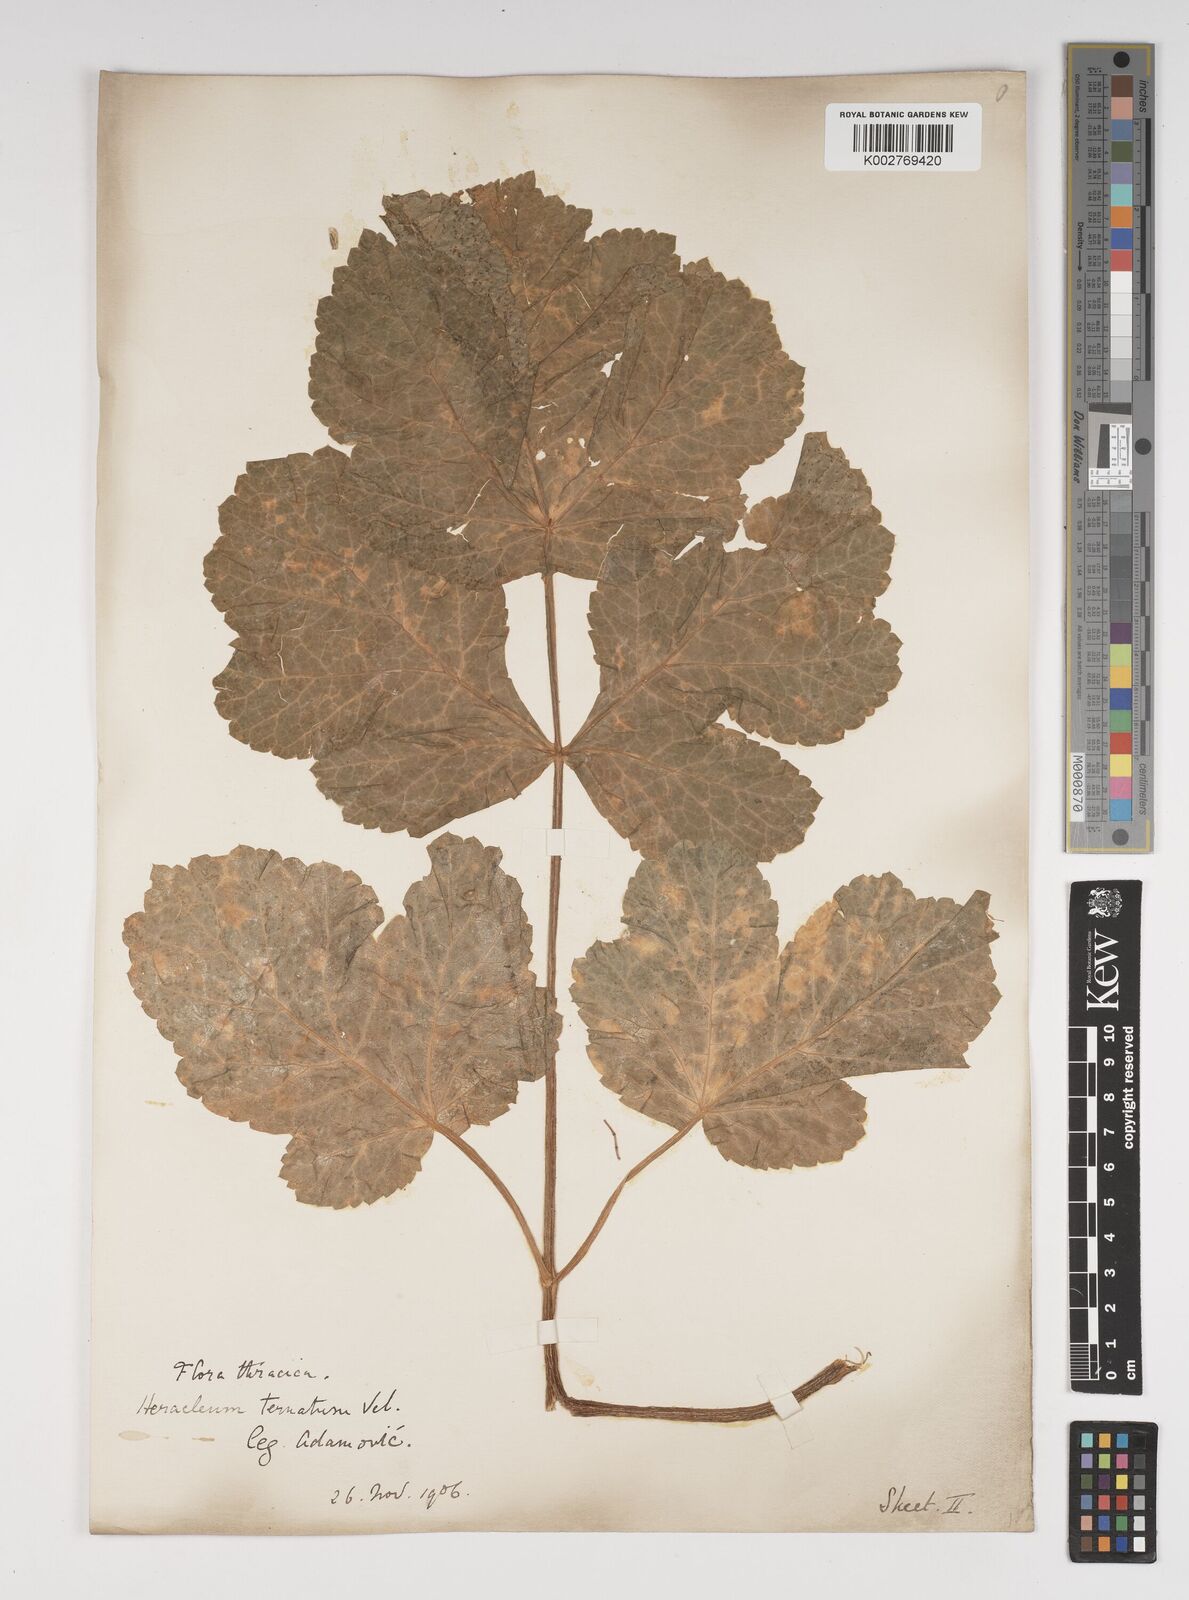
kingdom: Plantae
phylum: Tracheophyta
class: Magnoliopsida
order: Apiales
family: Apiaceae
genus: Heracleum
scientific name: Heracleum sphondylium
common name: Hogweed
